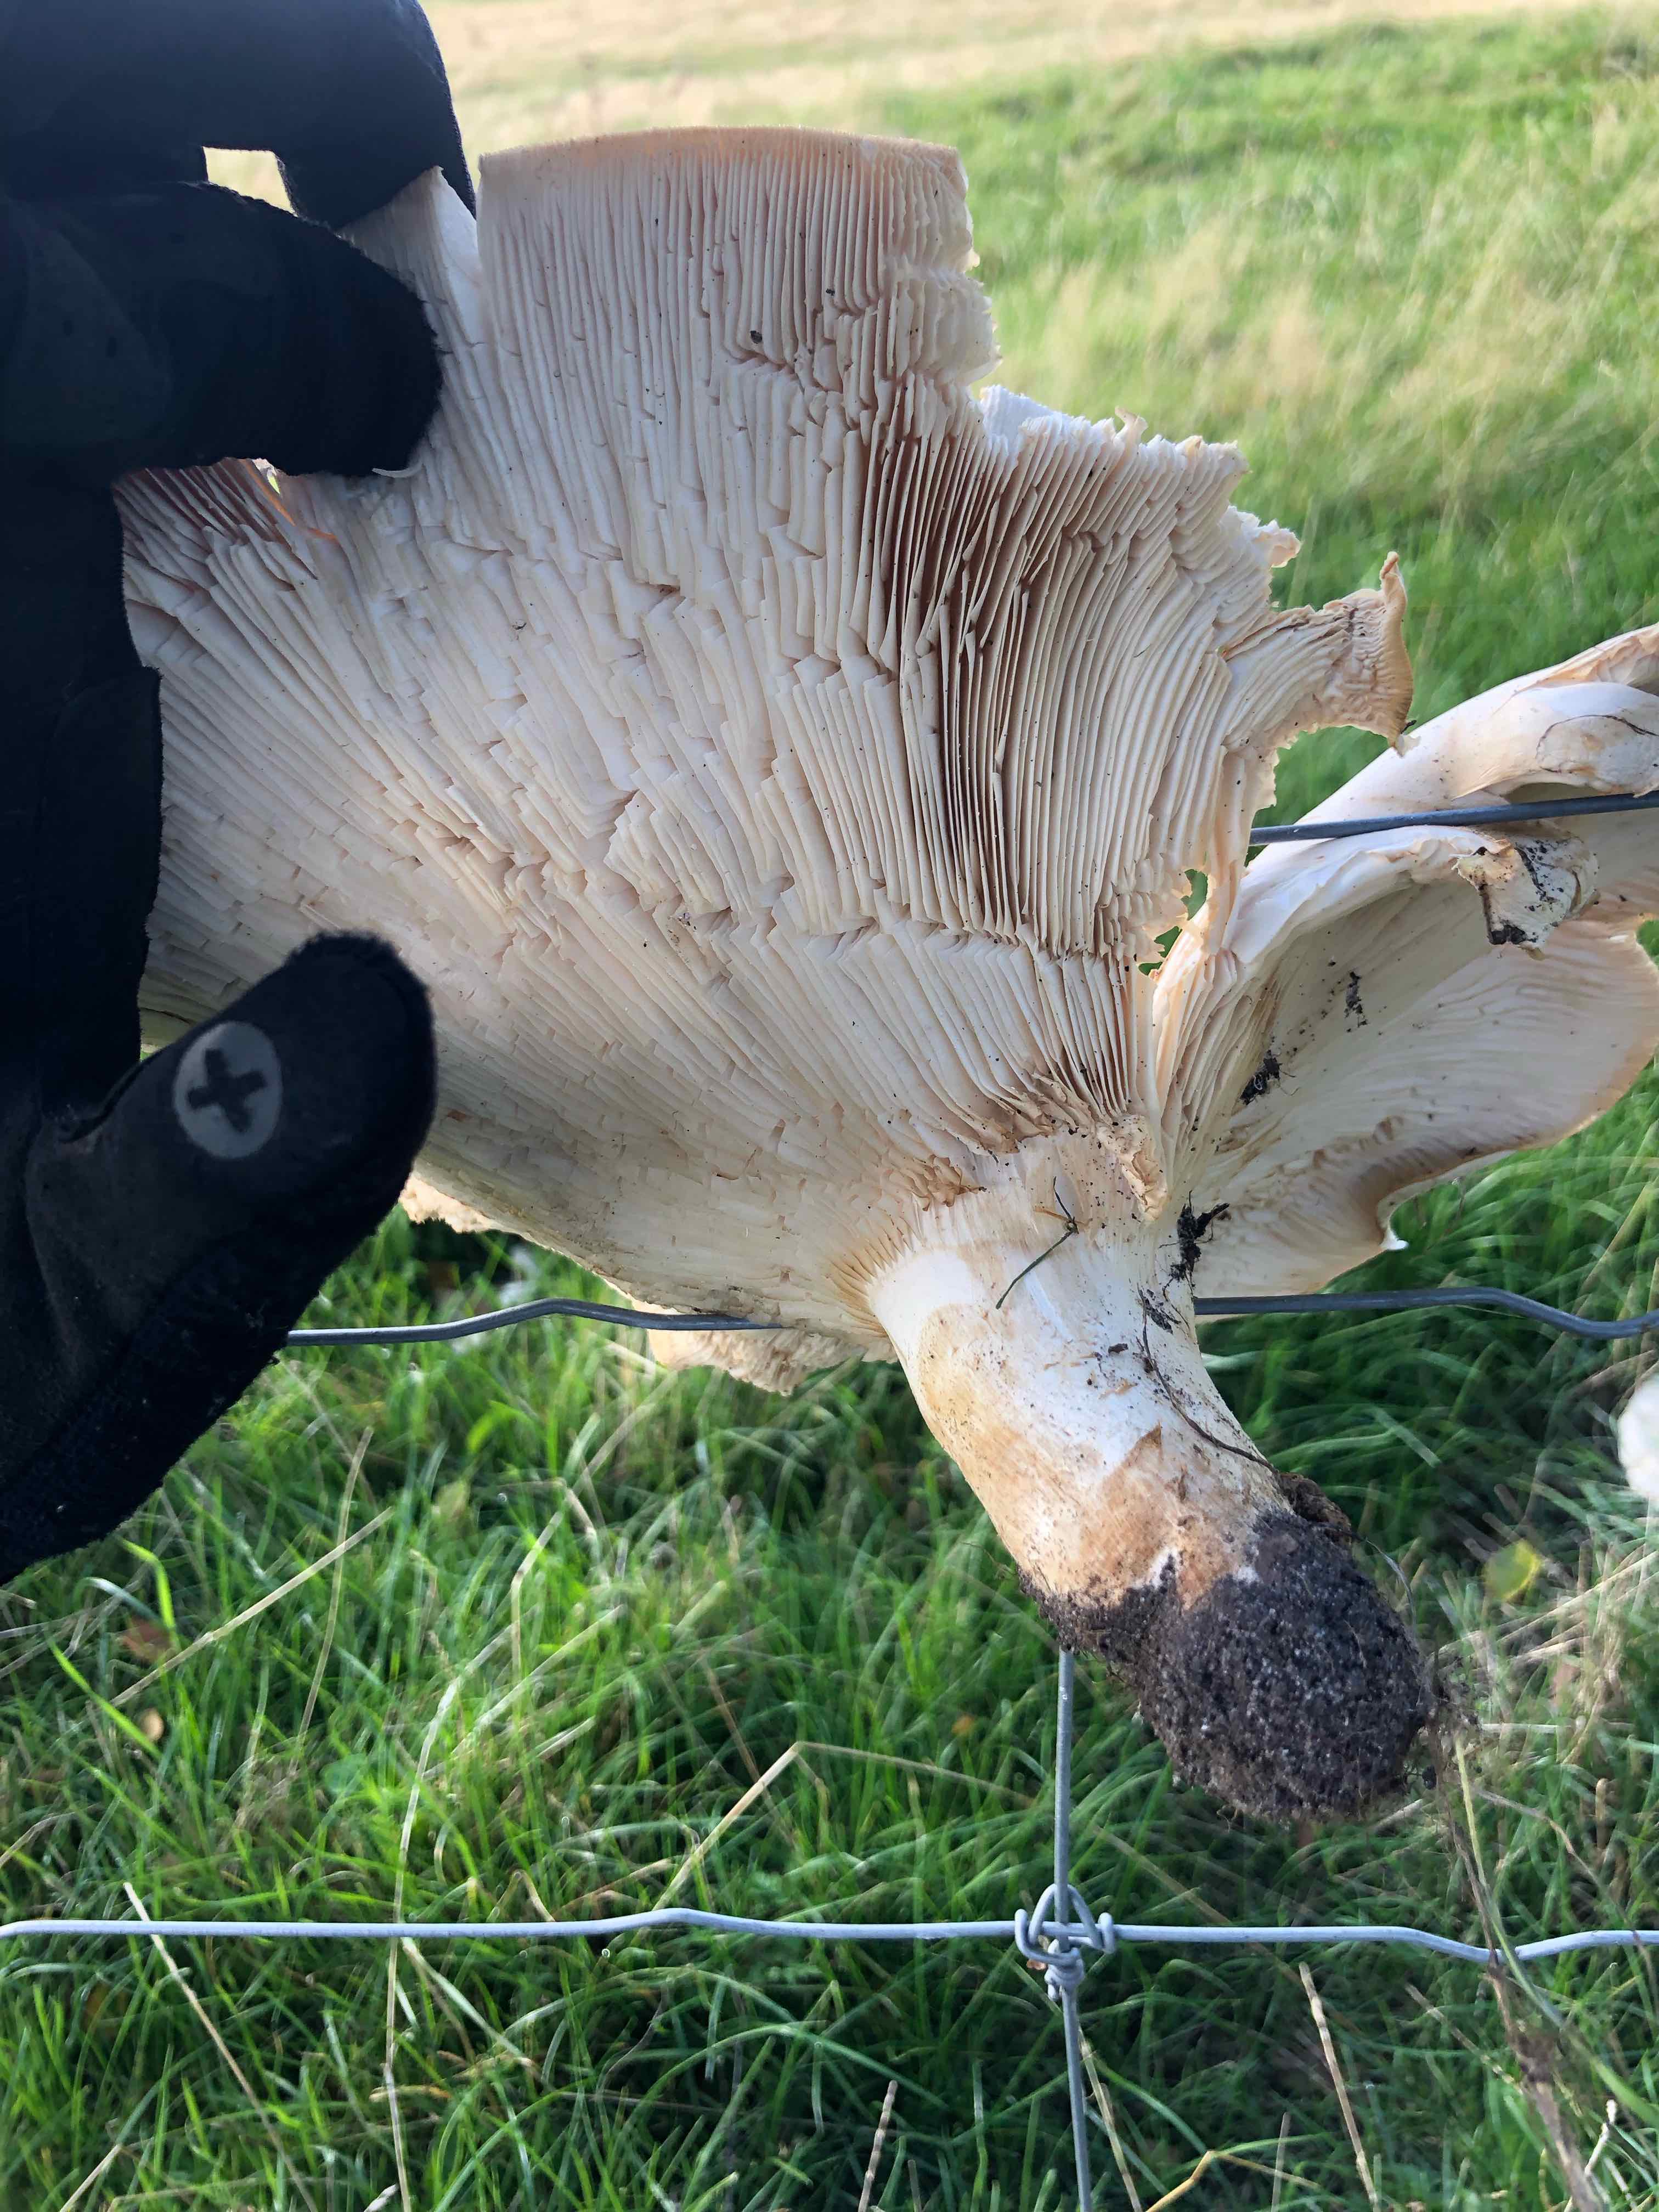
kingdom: Fungi
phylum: Basidiomycota
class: Agaricomycetes
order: Agaricales
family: Tricholomataceae
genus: Aspropaxillus
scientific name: Aspropaxillus giganteus
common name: kæmpe-tragtridderhat
